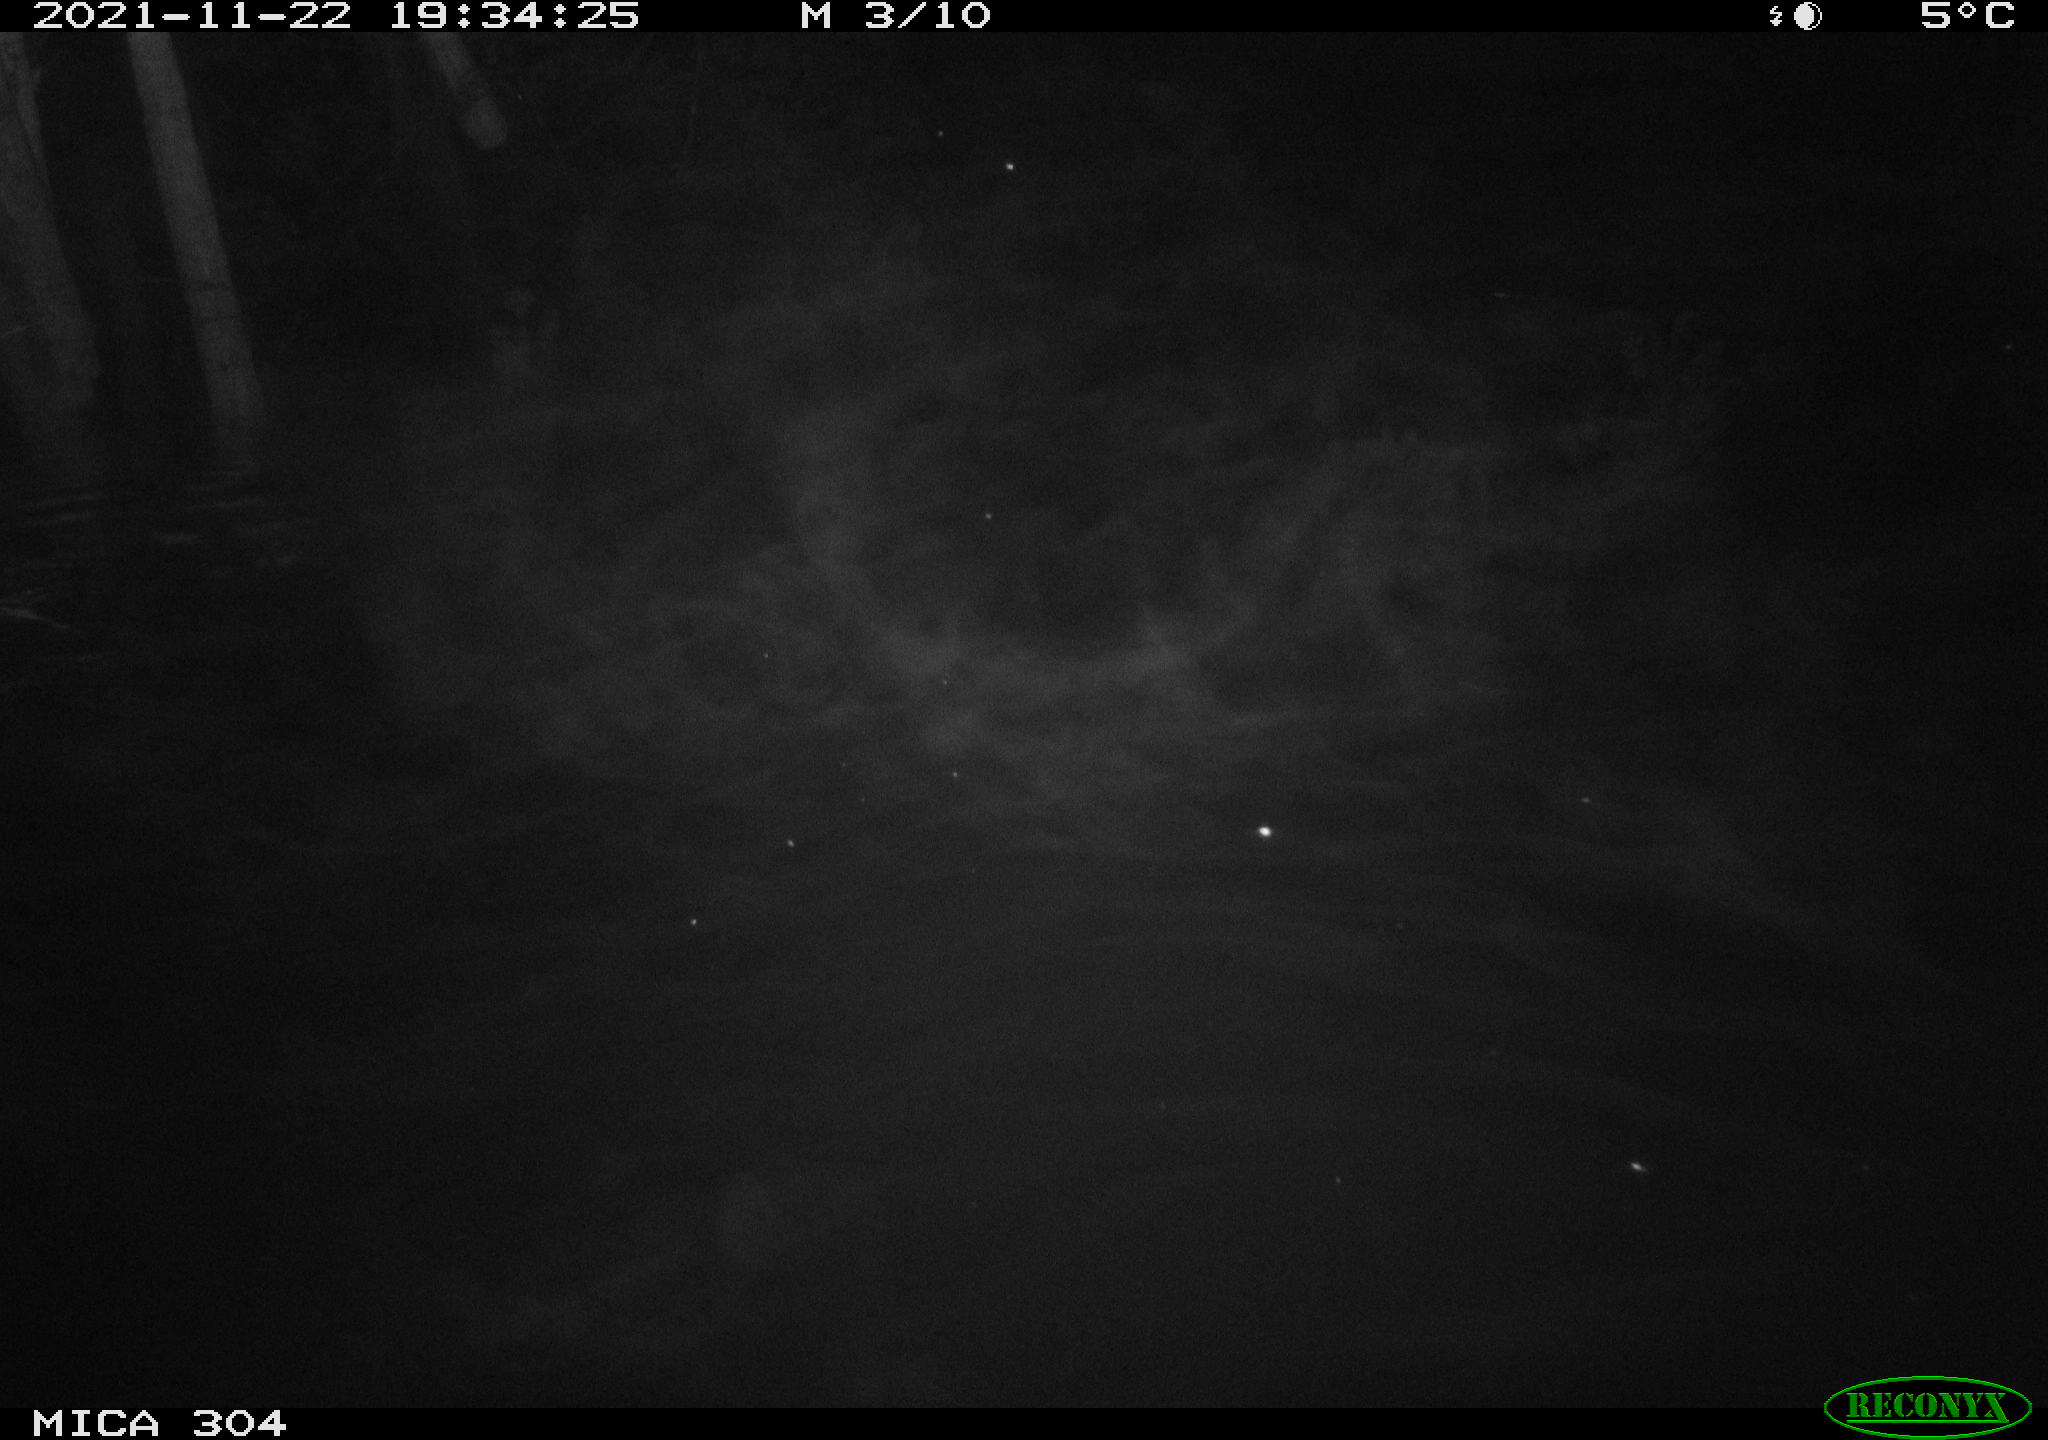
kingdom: Animalia
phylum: Chordata
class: Mammalia
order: Rodentia
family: Muridae
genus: Rattus
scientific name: Rattus norvegicus
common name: Brown rat
